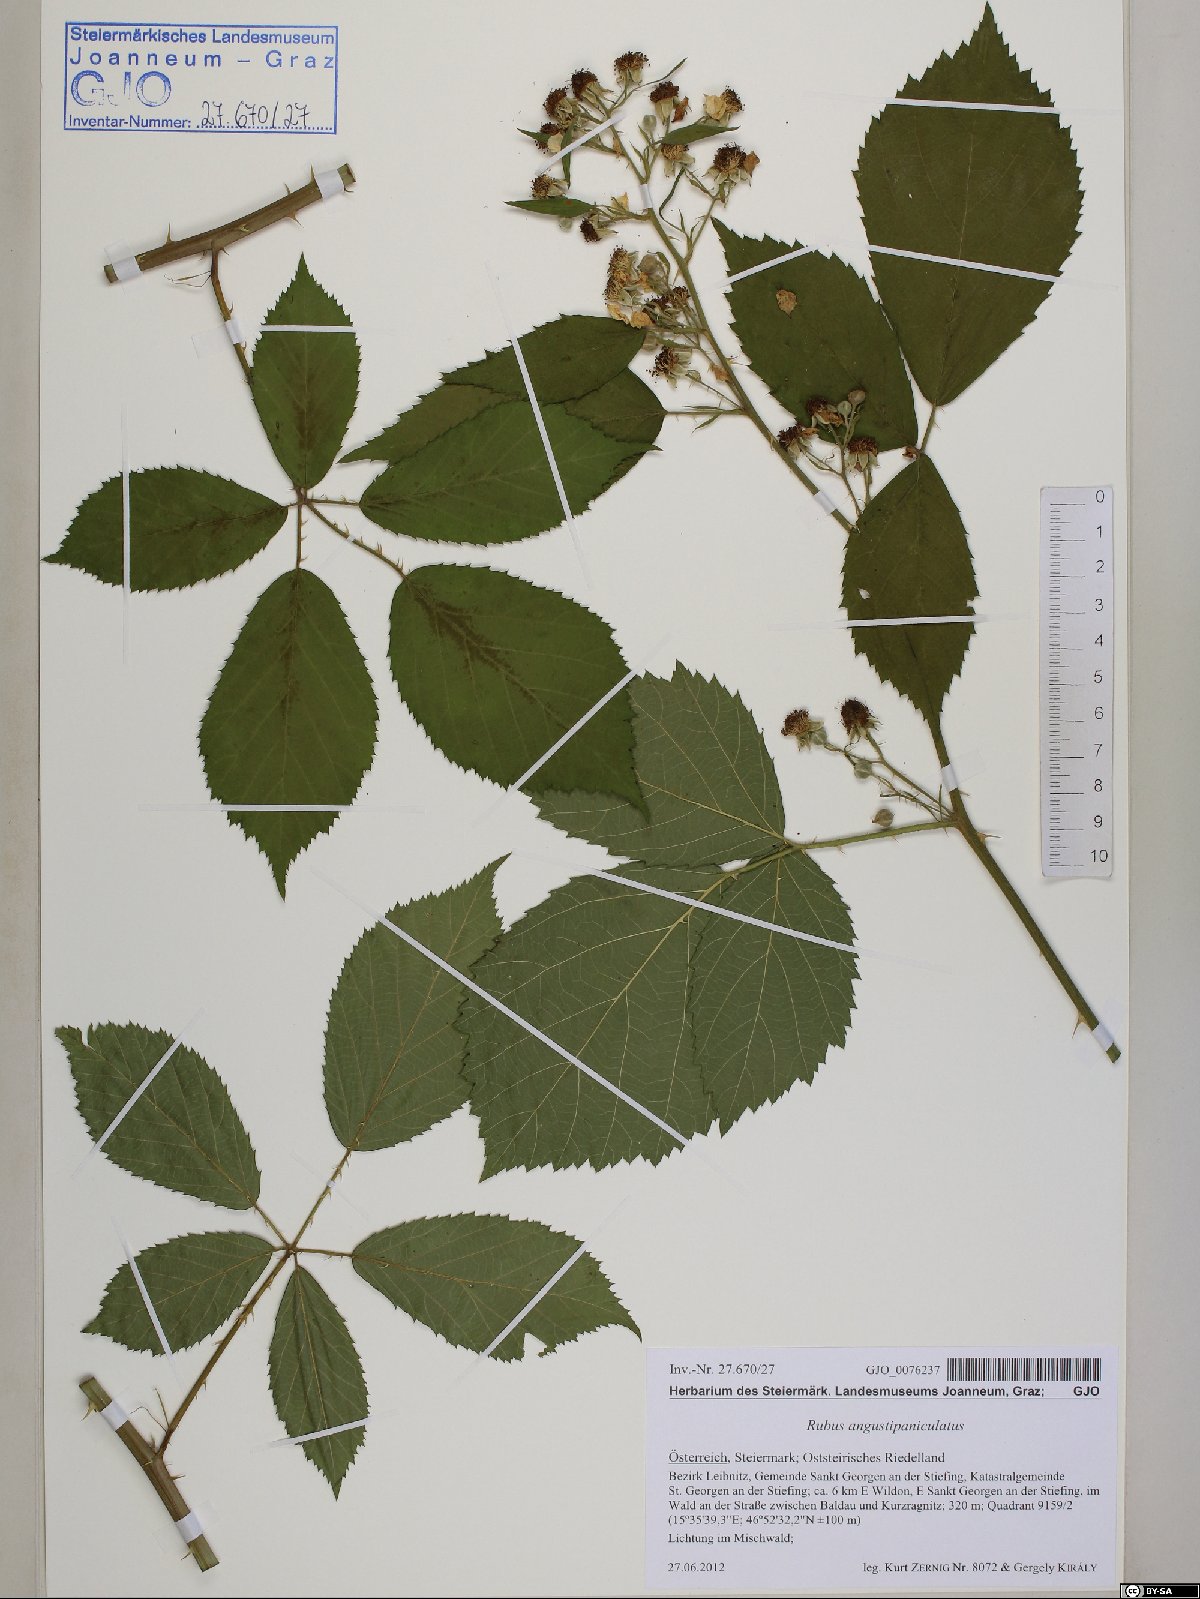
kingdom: Plantae
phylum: Tracheophyta
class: Magnoliopsida
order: Rosales
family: Rosaceae
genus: Rubus
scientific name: Rubus angustipaniculatus
